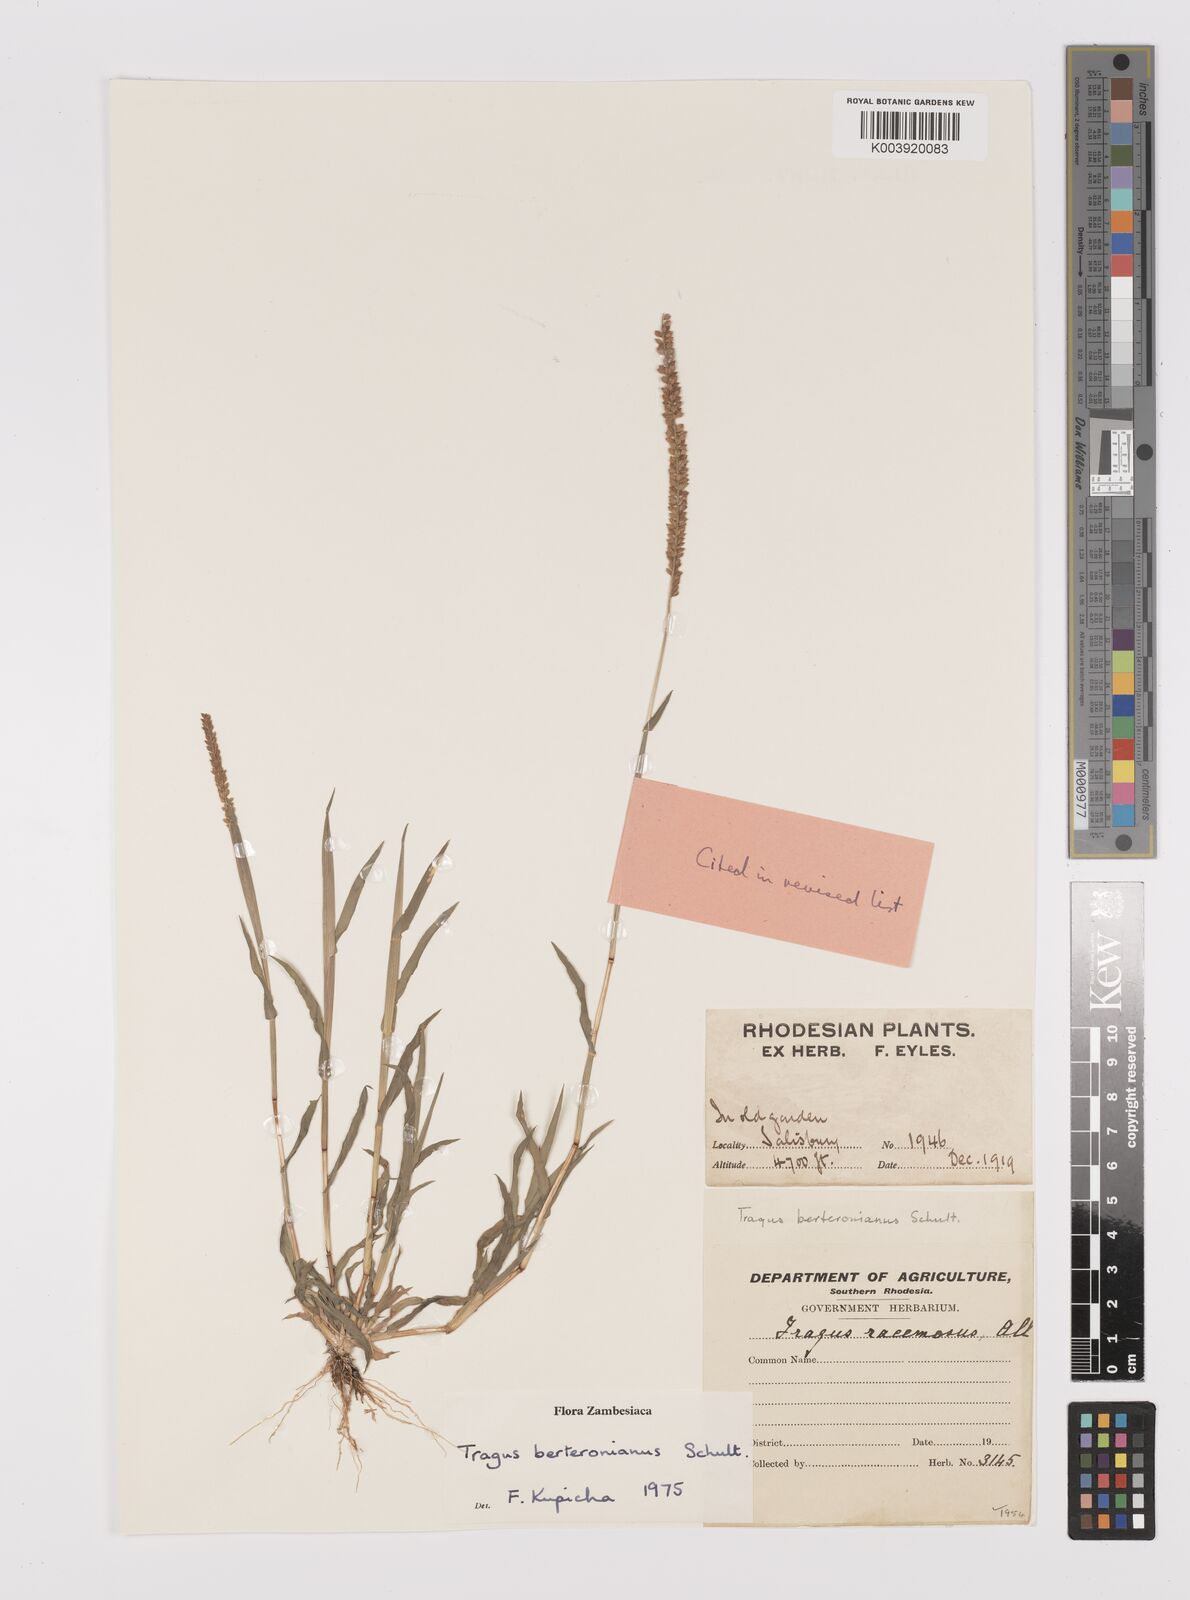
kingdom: Plantae
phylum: Tracheophyta
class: Liliopsida
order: Poales
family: Poaceae
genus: Tragus
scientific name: Tragus berteronianus
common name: African bur-grass
